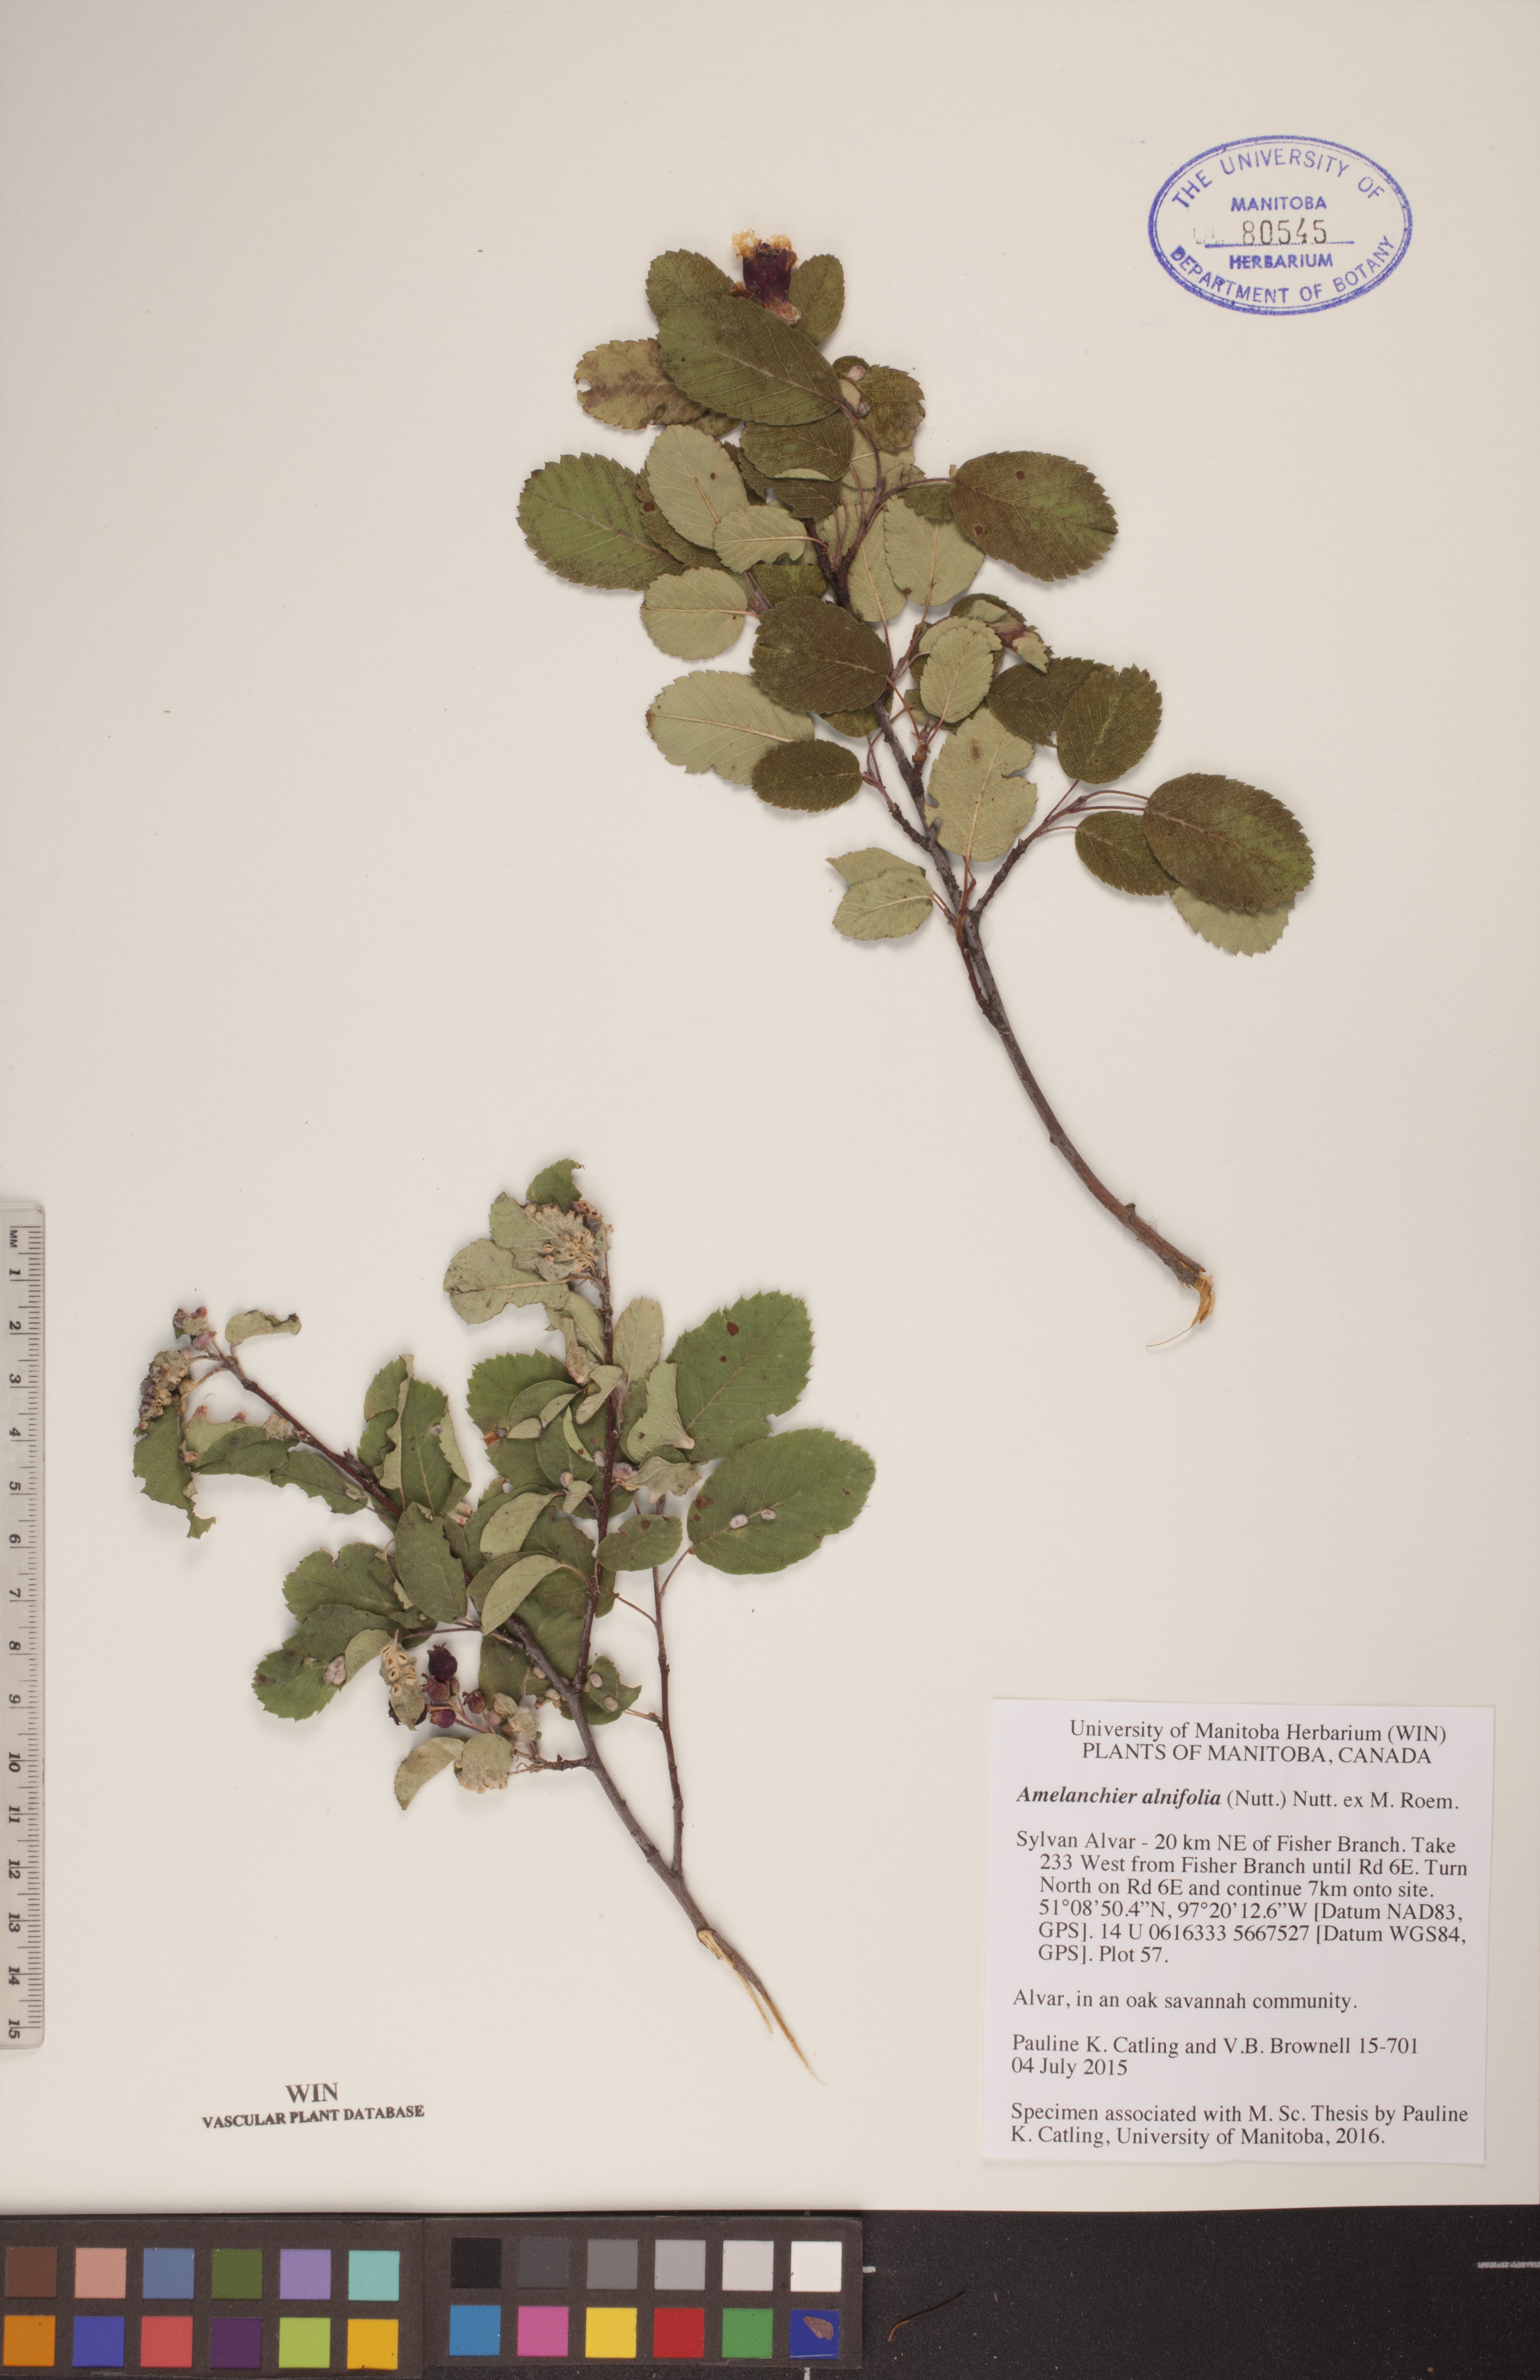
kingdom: Plantae
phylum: Tracheophyta
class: Magnoliopsida
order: Rosales
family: Rosaceae
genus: Amelanchier
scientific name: Amelanchier alnifolia
